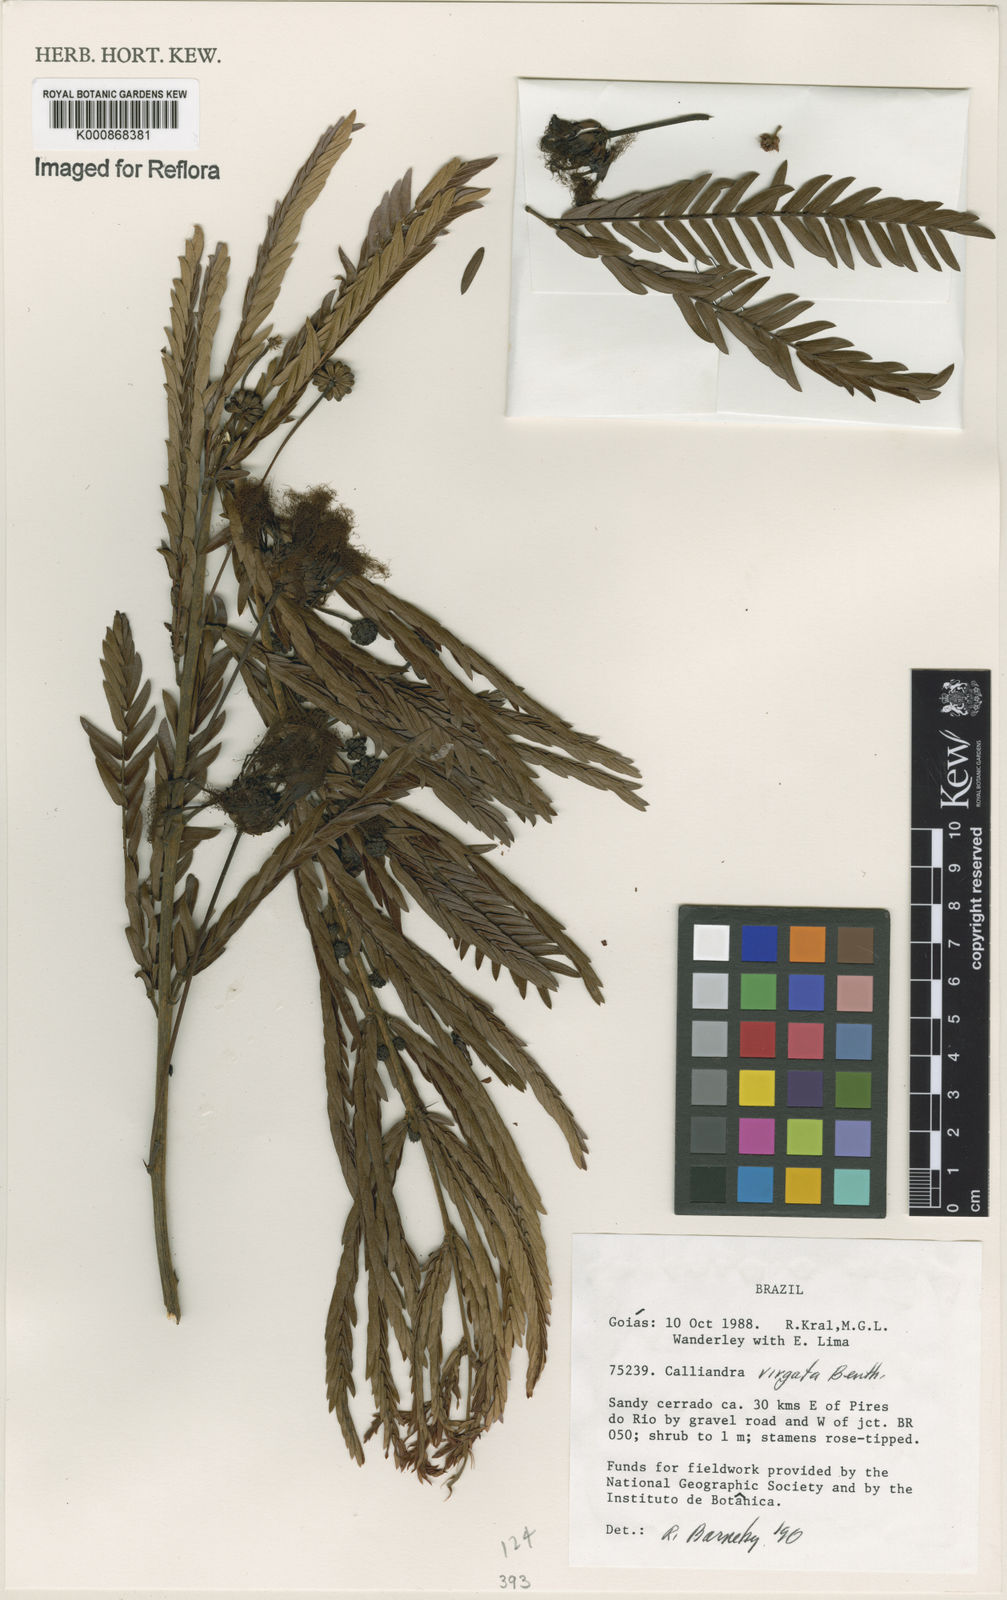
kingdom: Plantae
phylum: Tracheophyta
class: Magnoliopsida
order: Fabales
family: Fabaceae
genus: Calliandra
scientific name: Calliandra virgata
